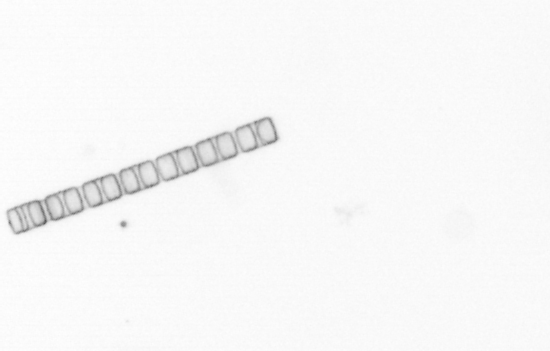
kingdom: Chromista
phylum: Ochrophyta
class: Bacillariophyceae
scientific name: Bacillariophyceae
